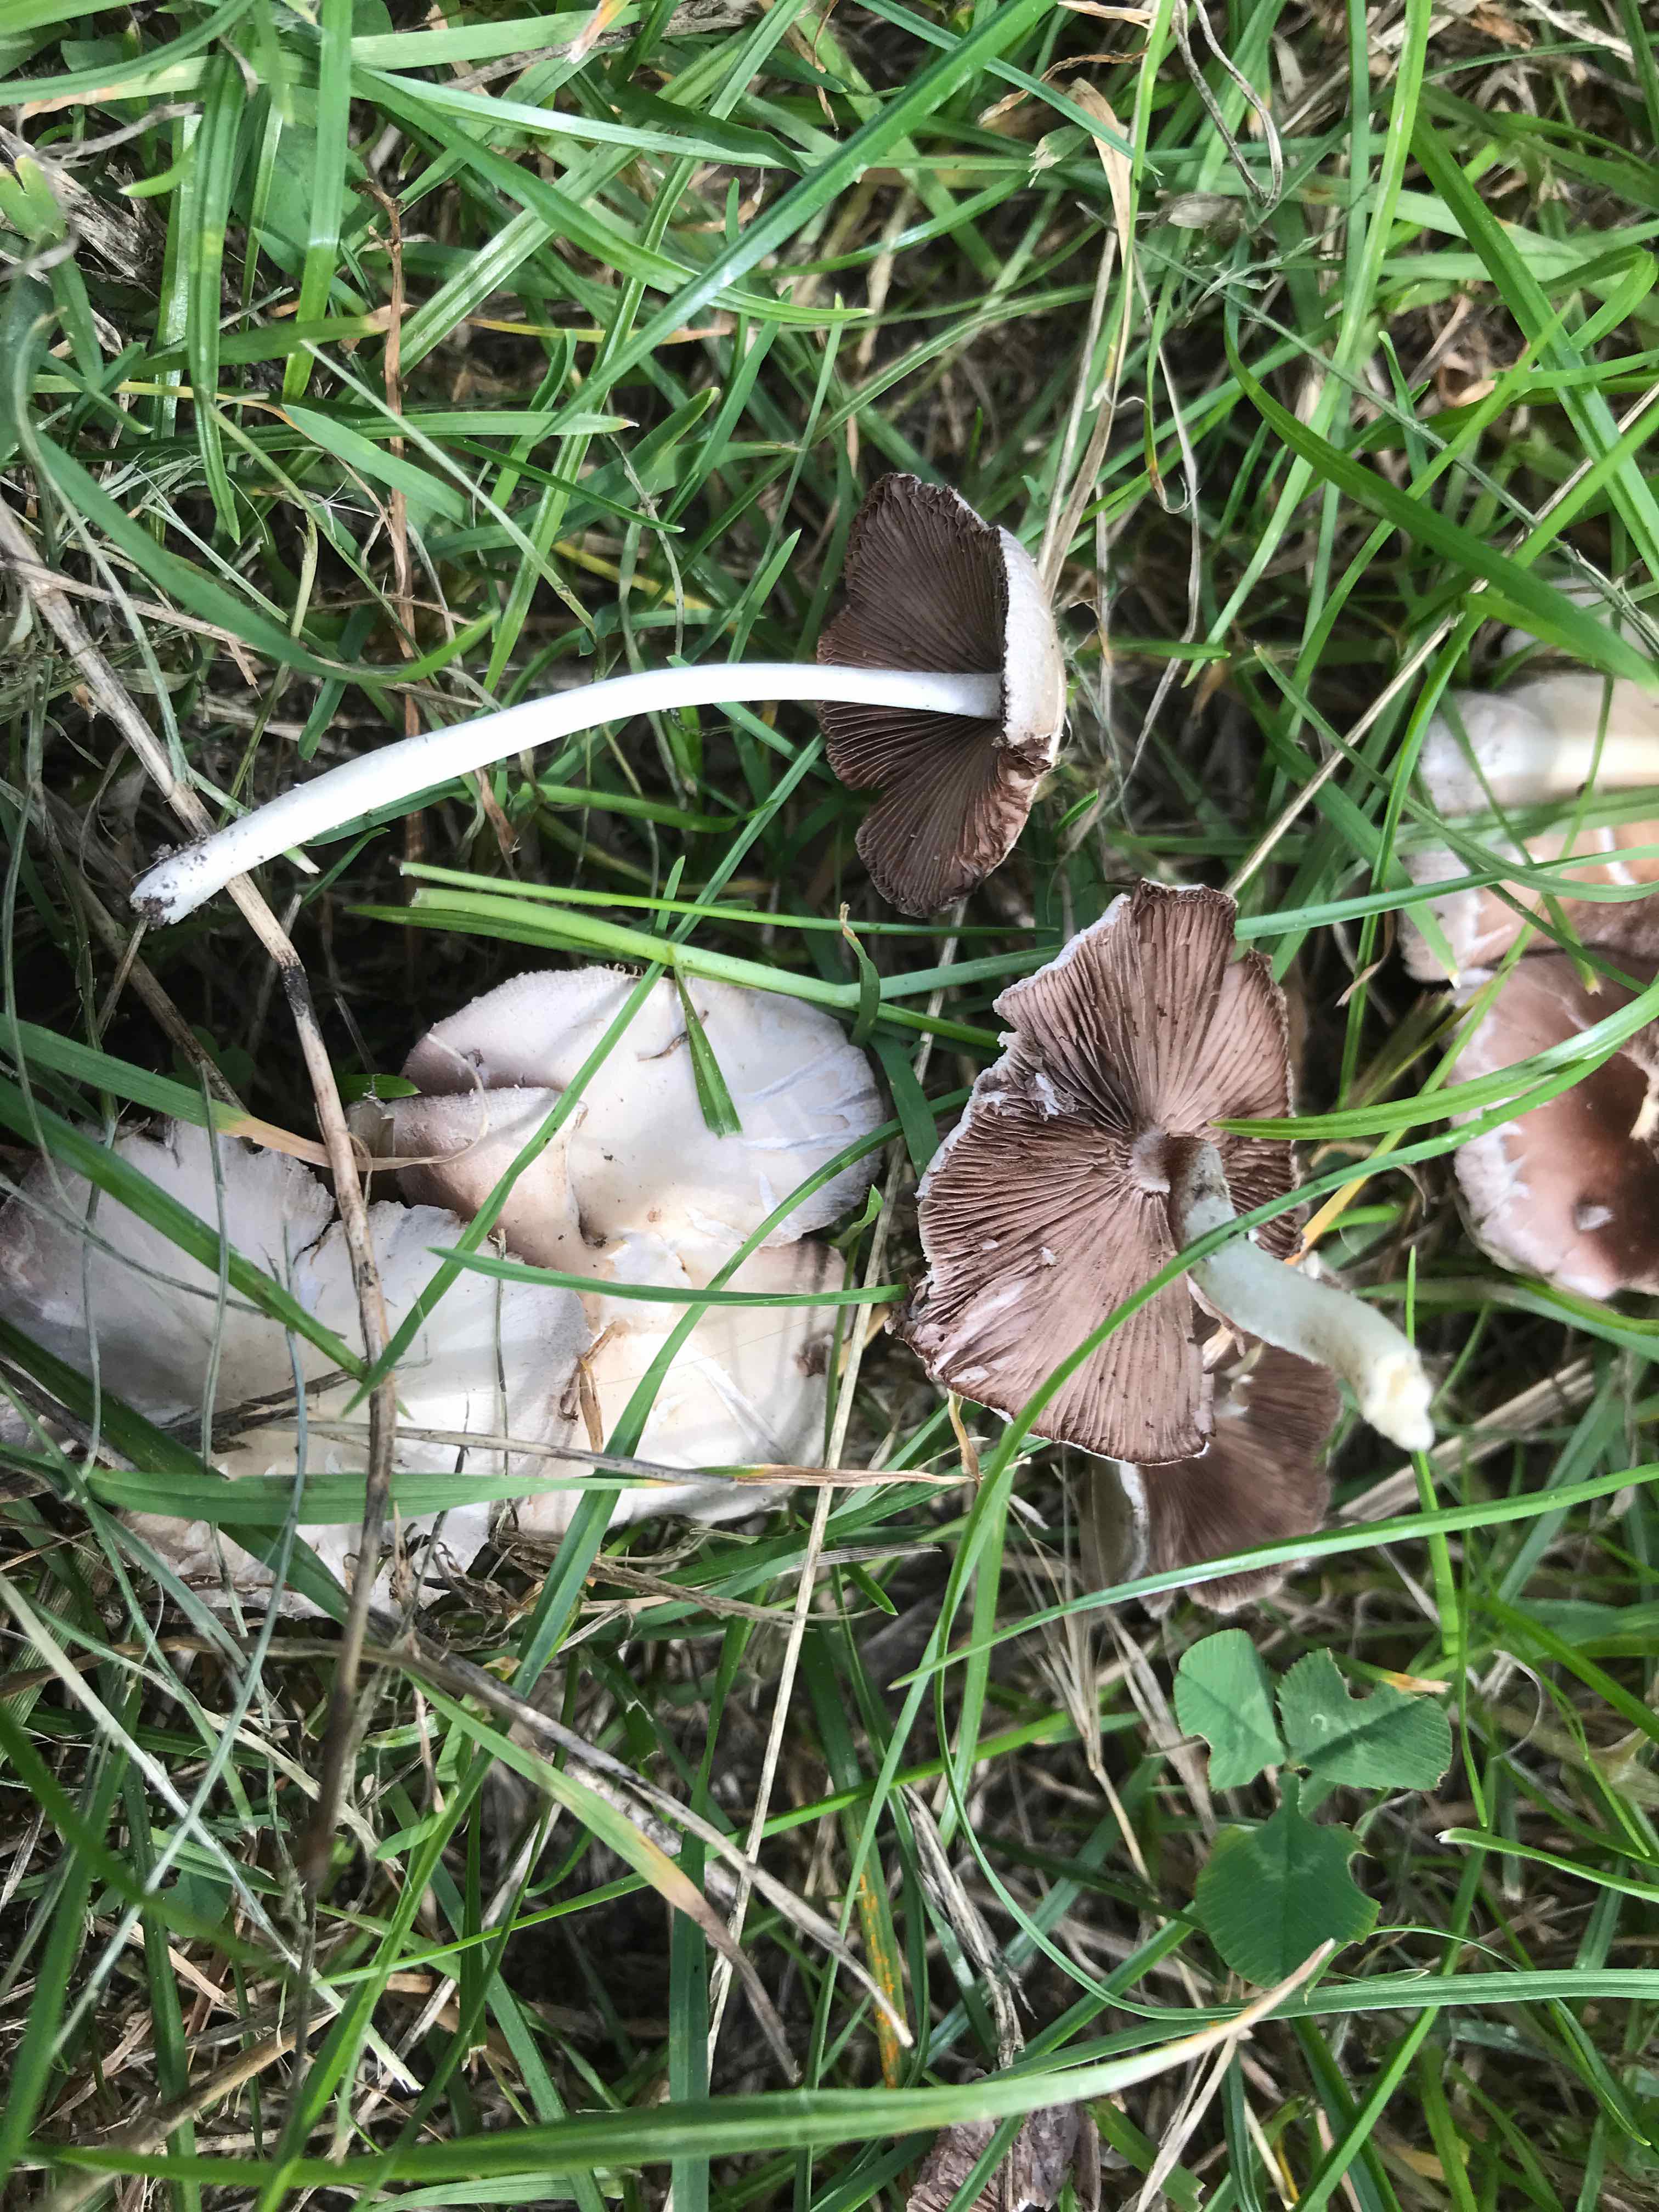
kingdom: Fungi
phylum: Basidiomycota
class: Agaricomycetes
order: Agaricales
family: Psathyrellaceae
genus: Candolleomyces
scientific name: Candolleomyces candolleanus
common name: Candolles mørkhat
